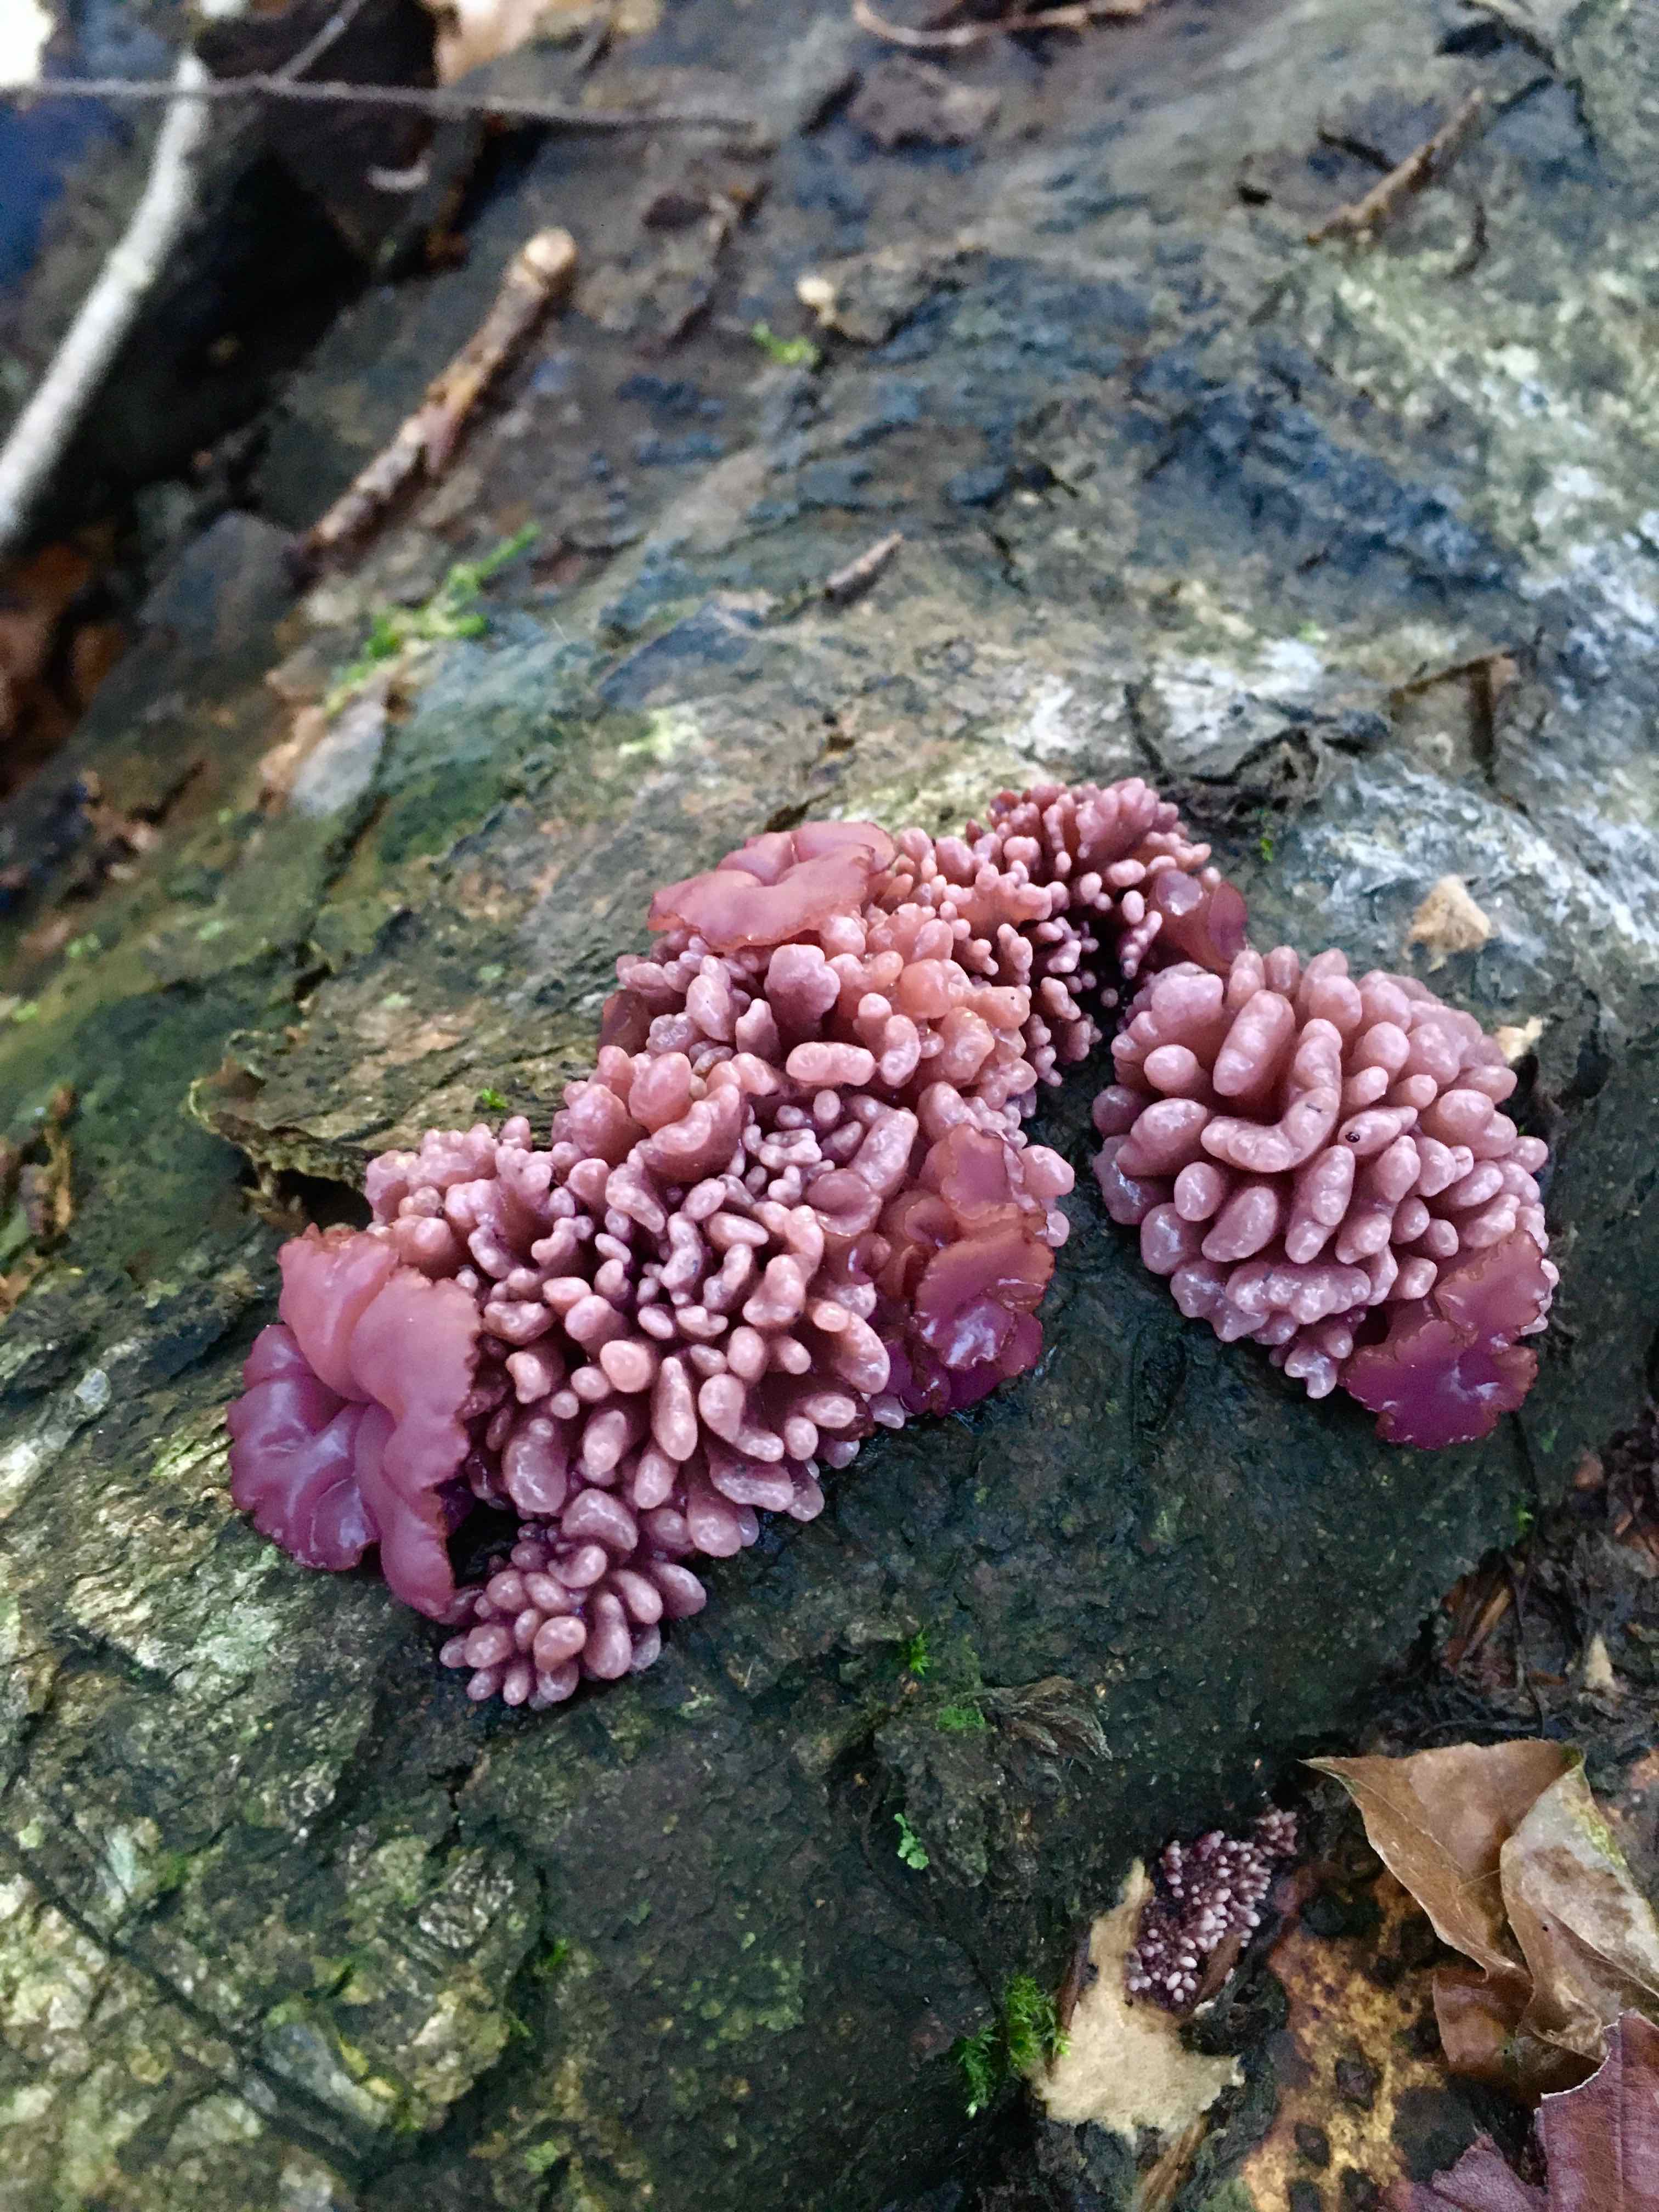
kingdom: Fungi
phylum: Ascomycota
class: Leotiomycetes
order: Helotiales
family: Gelatinodiscaceae
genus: Ascocoryne
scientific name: Ascocoryne sarcoides
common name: rødlilla sejskive
